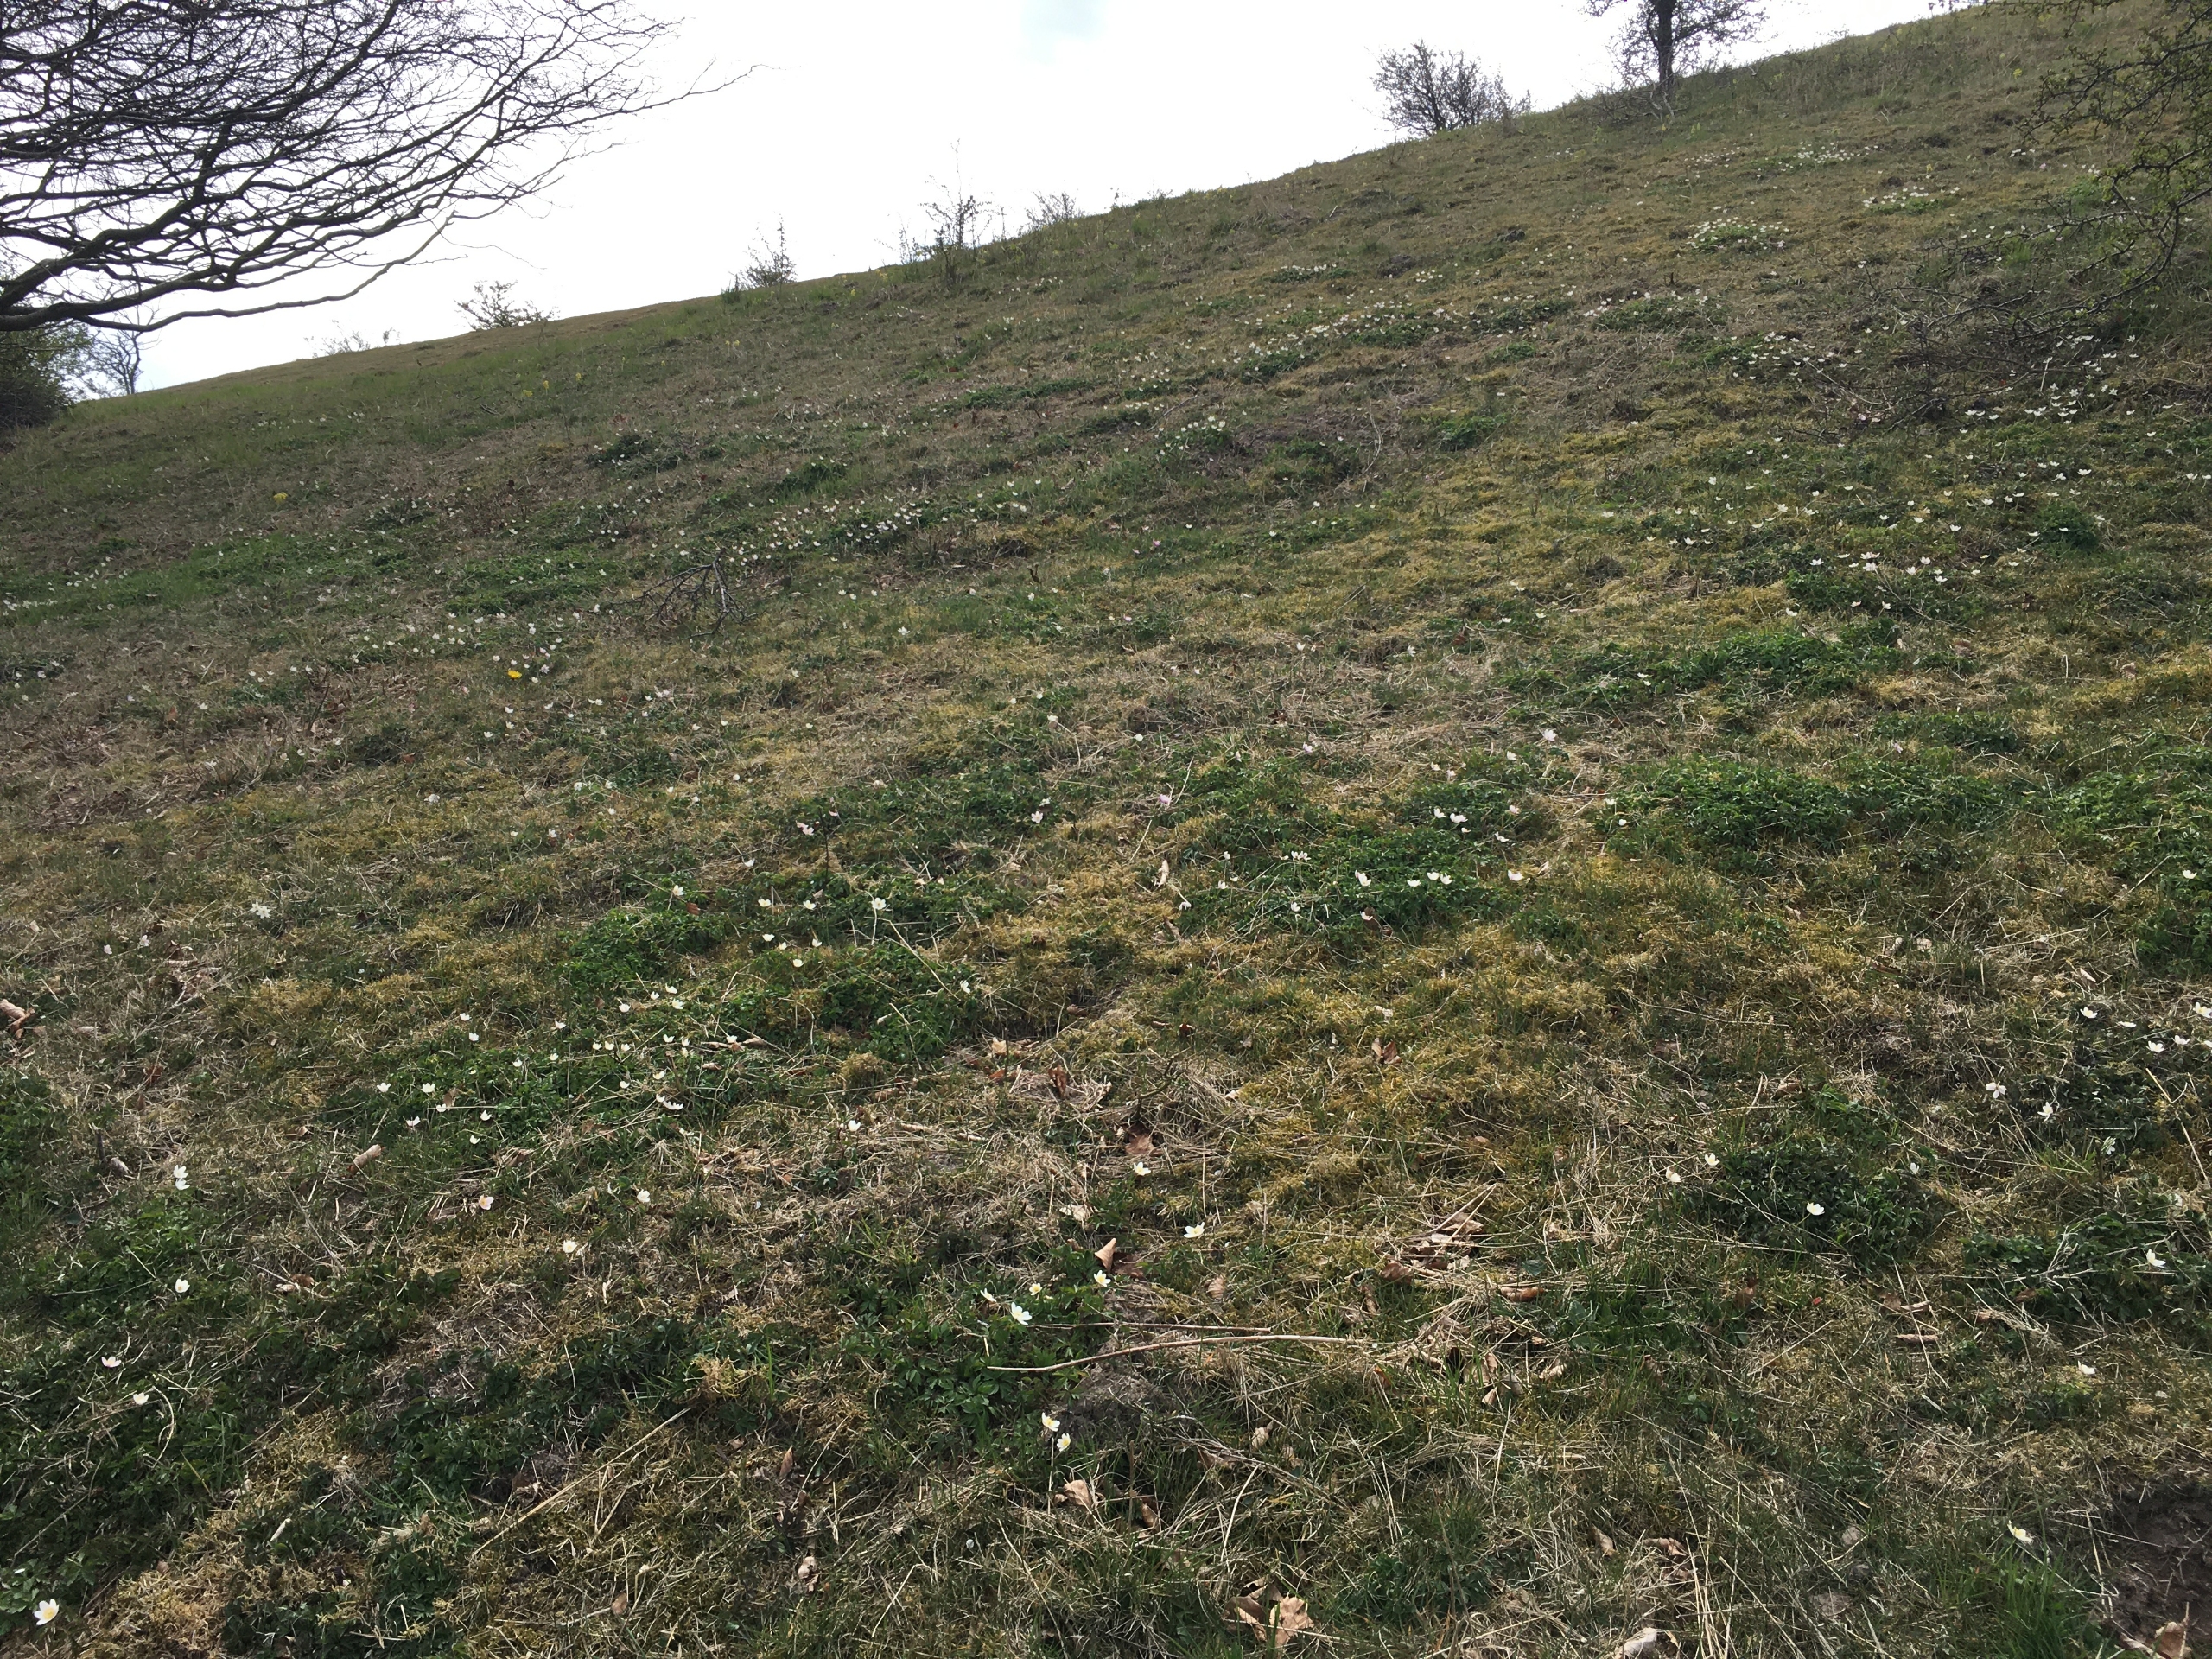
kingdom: Plantae
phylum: Tracheophyta
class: Magnoliopsida
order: Ranunculales
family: Ranunculaceae
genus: Anemone
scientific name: Anemone nemorosa
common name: Hvid anemone
